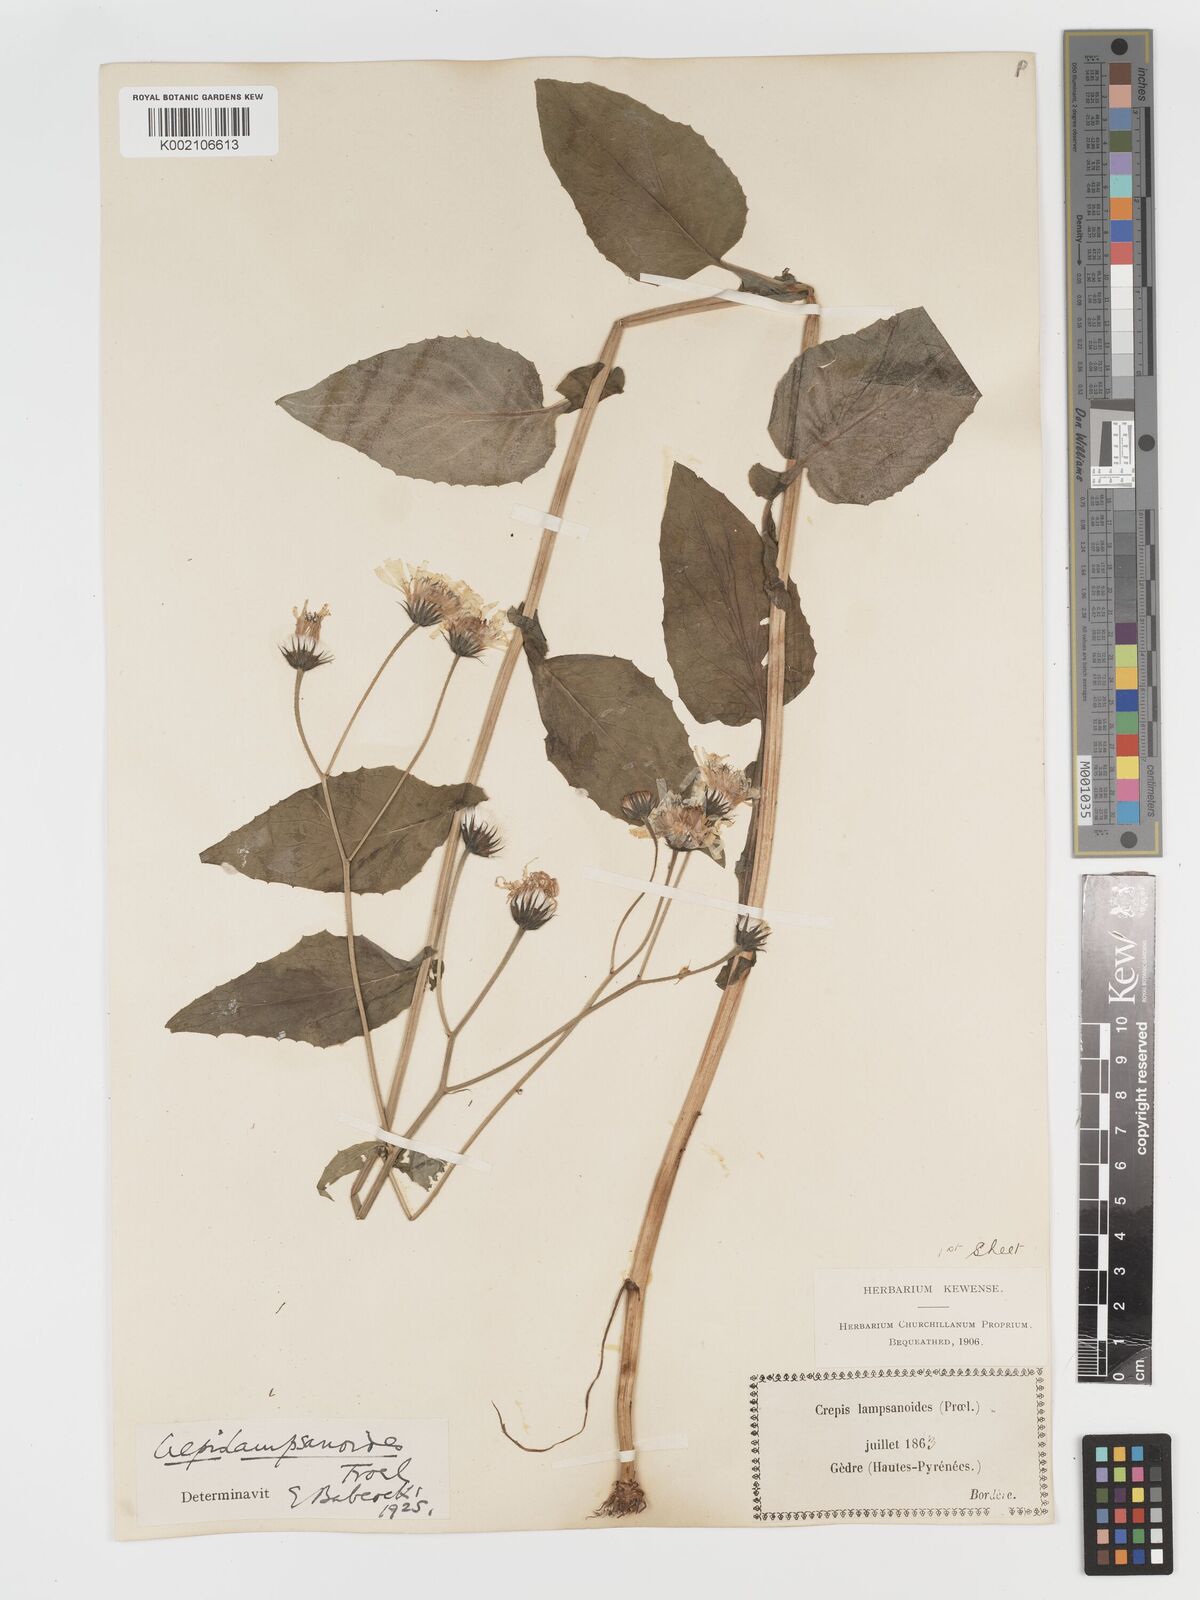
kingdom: Plantae
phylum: Tracheophyta
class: Magnoliopsida
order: Asterales
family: Asteraceae
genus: Crepis
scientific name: Crepis lampsanoides
